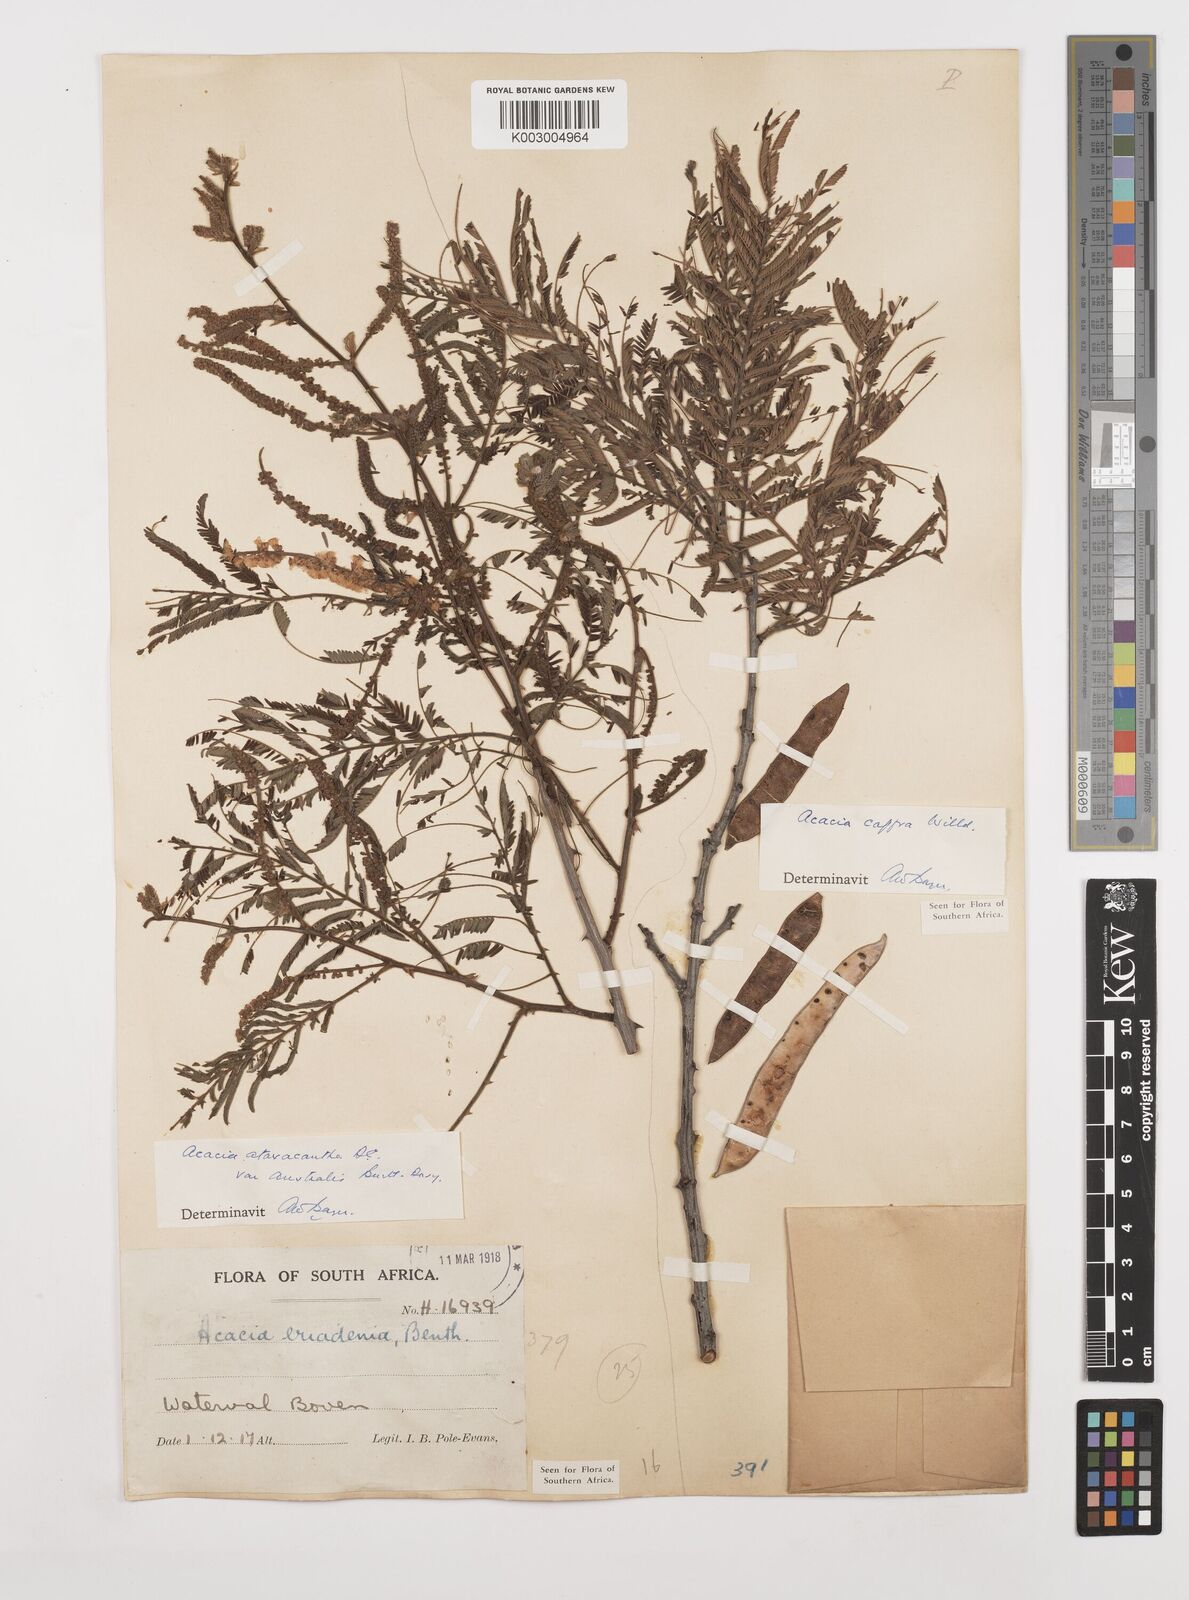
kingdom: Plantae
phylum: Tracheophyta
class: Magnoliopsida
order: Fabales
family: Fabaceae
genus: Senegalia
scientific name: Senegalia ataxacantha
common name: Flame acacia
